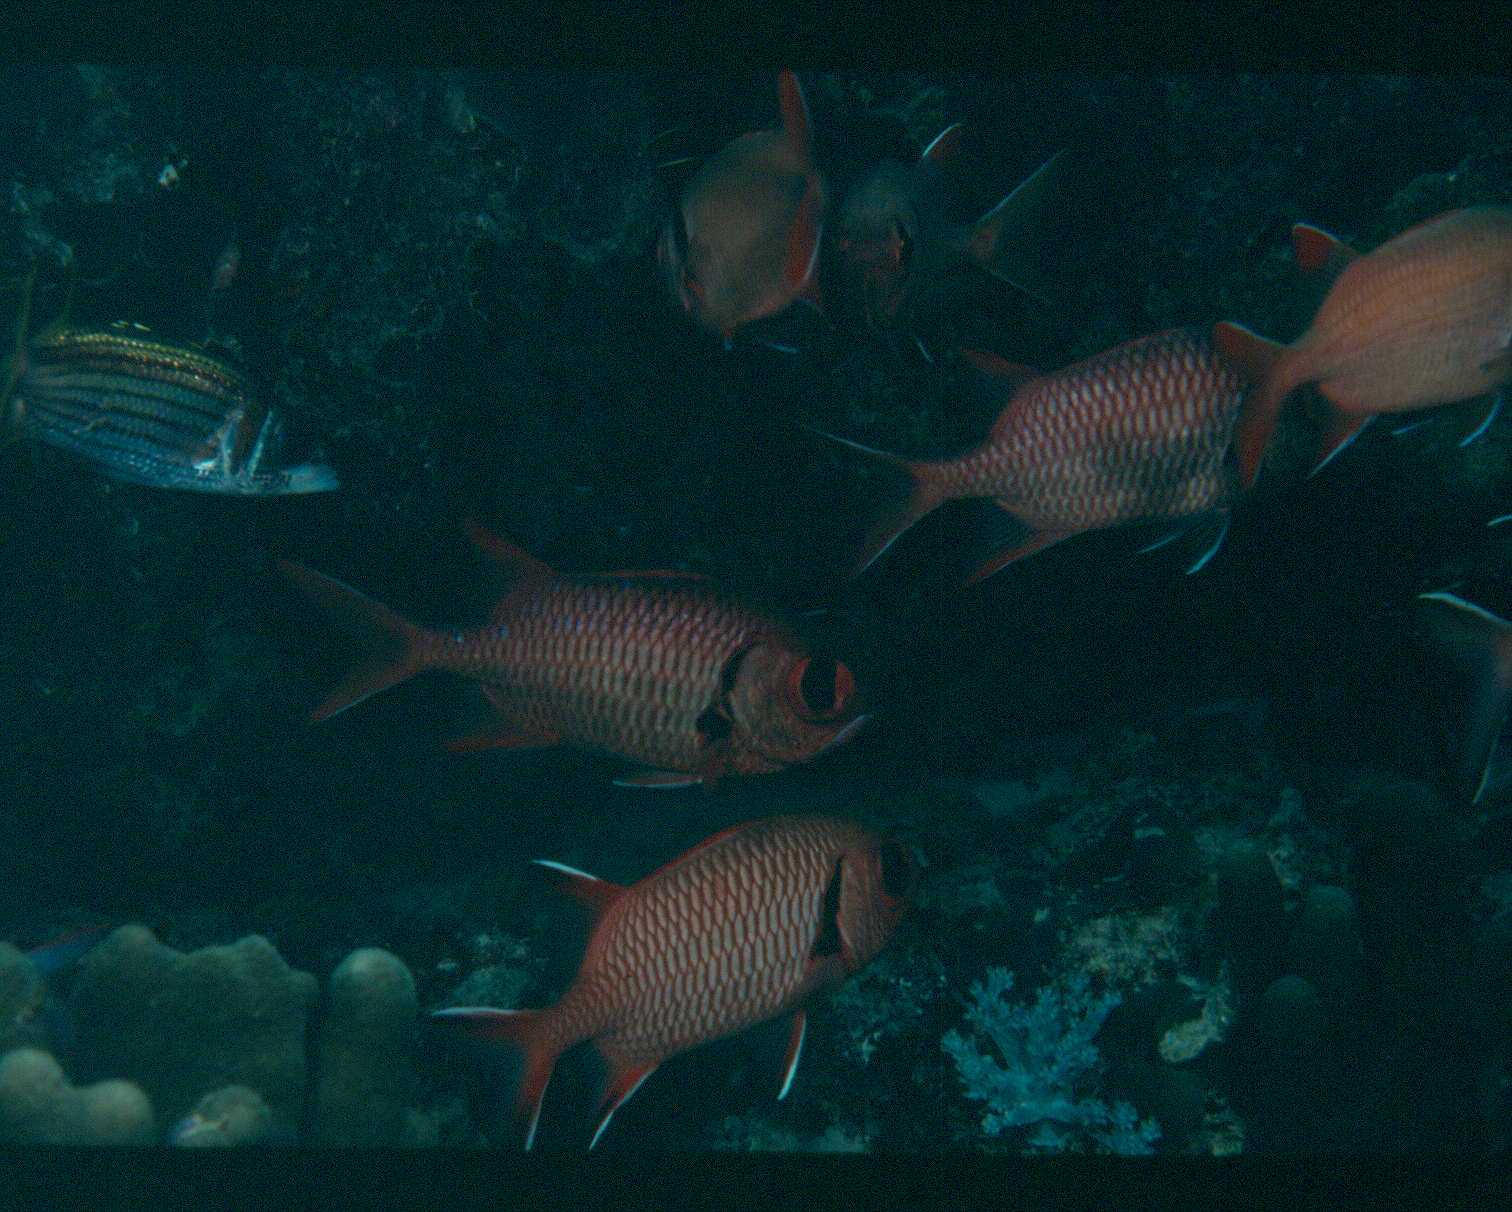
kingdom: Animalia
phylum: Chordata
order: Beryciformes
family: Holocentridae
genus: Myripristis
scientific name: Myripristis berndti
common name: Bigscale soldierfish
